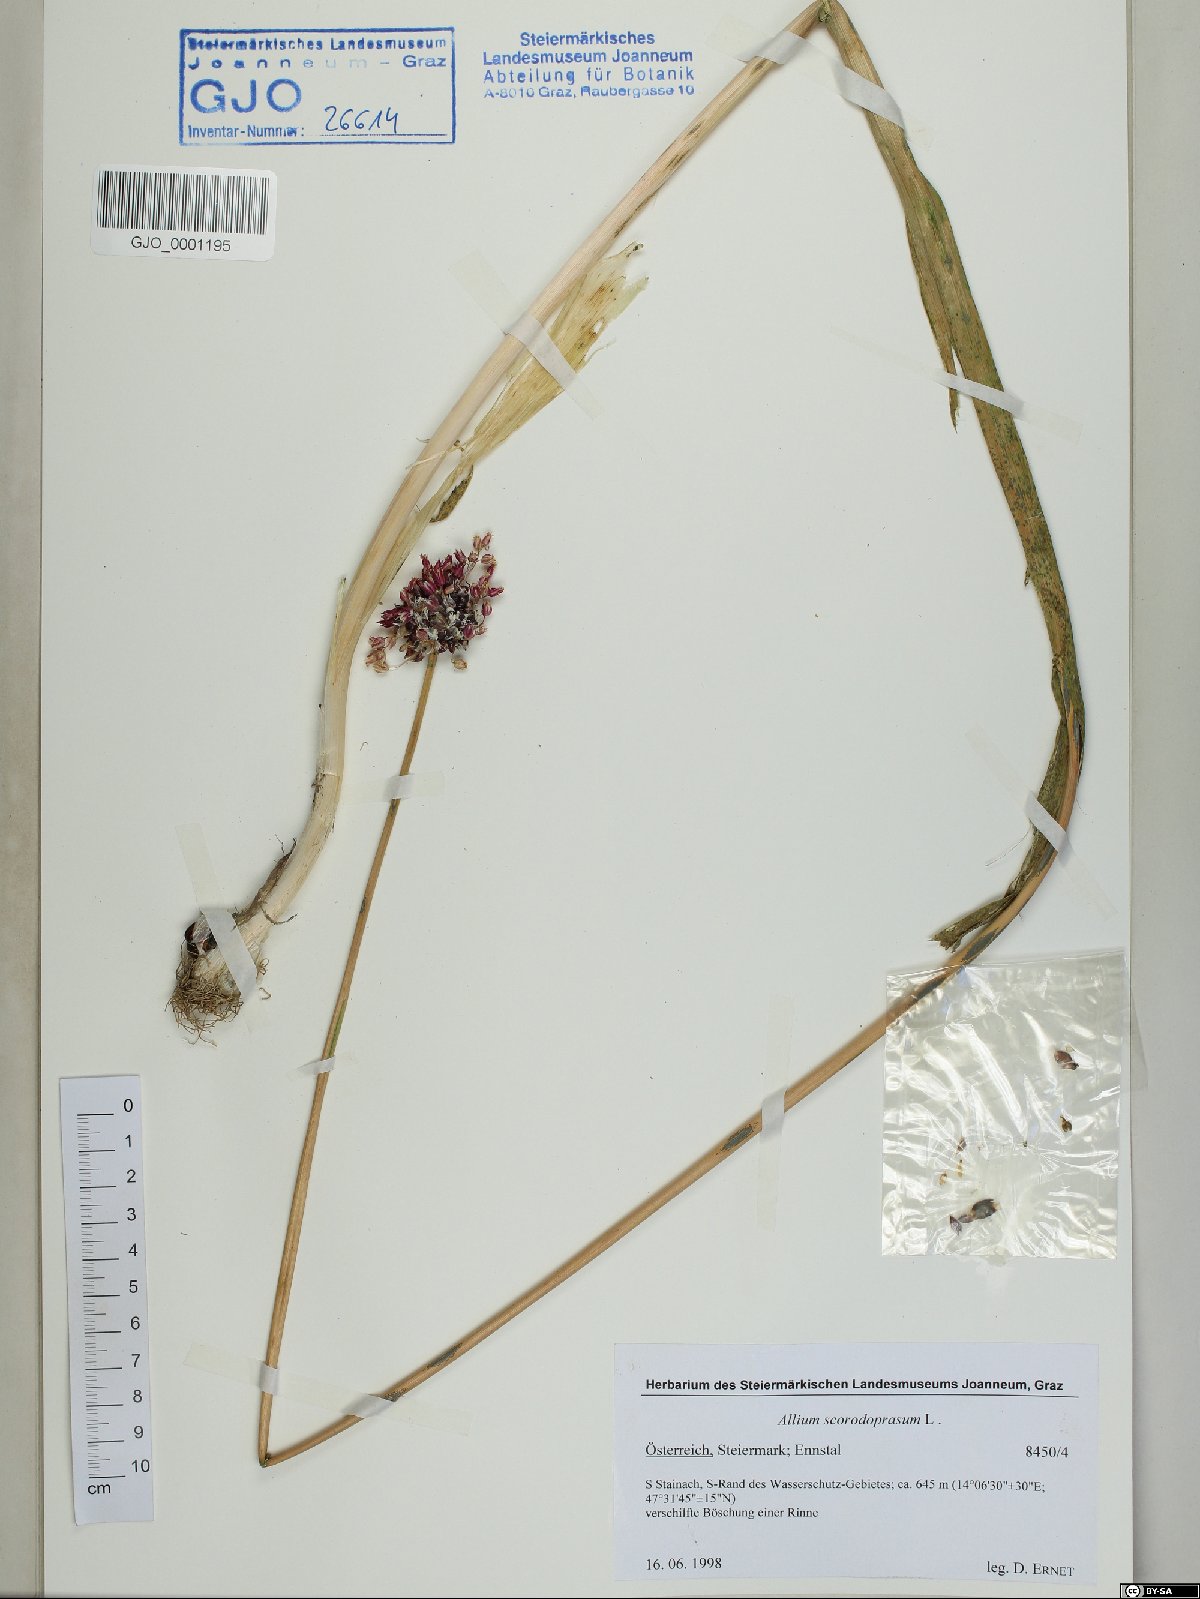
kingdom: Plantae
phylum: Tracheophyta
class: Liliopsida
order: Asparagales
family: Amaryllidaceae
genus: Allium
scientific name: Allium scorodoprasum
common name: Sand leek
